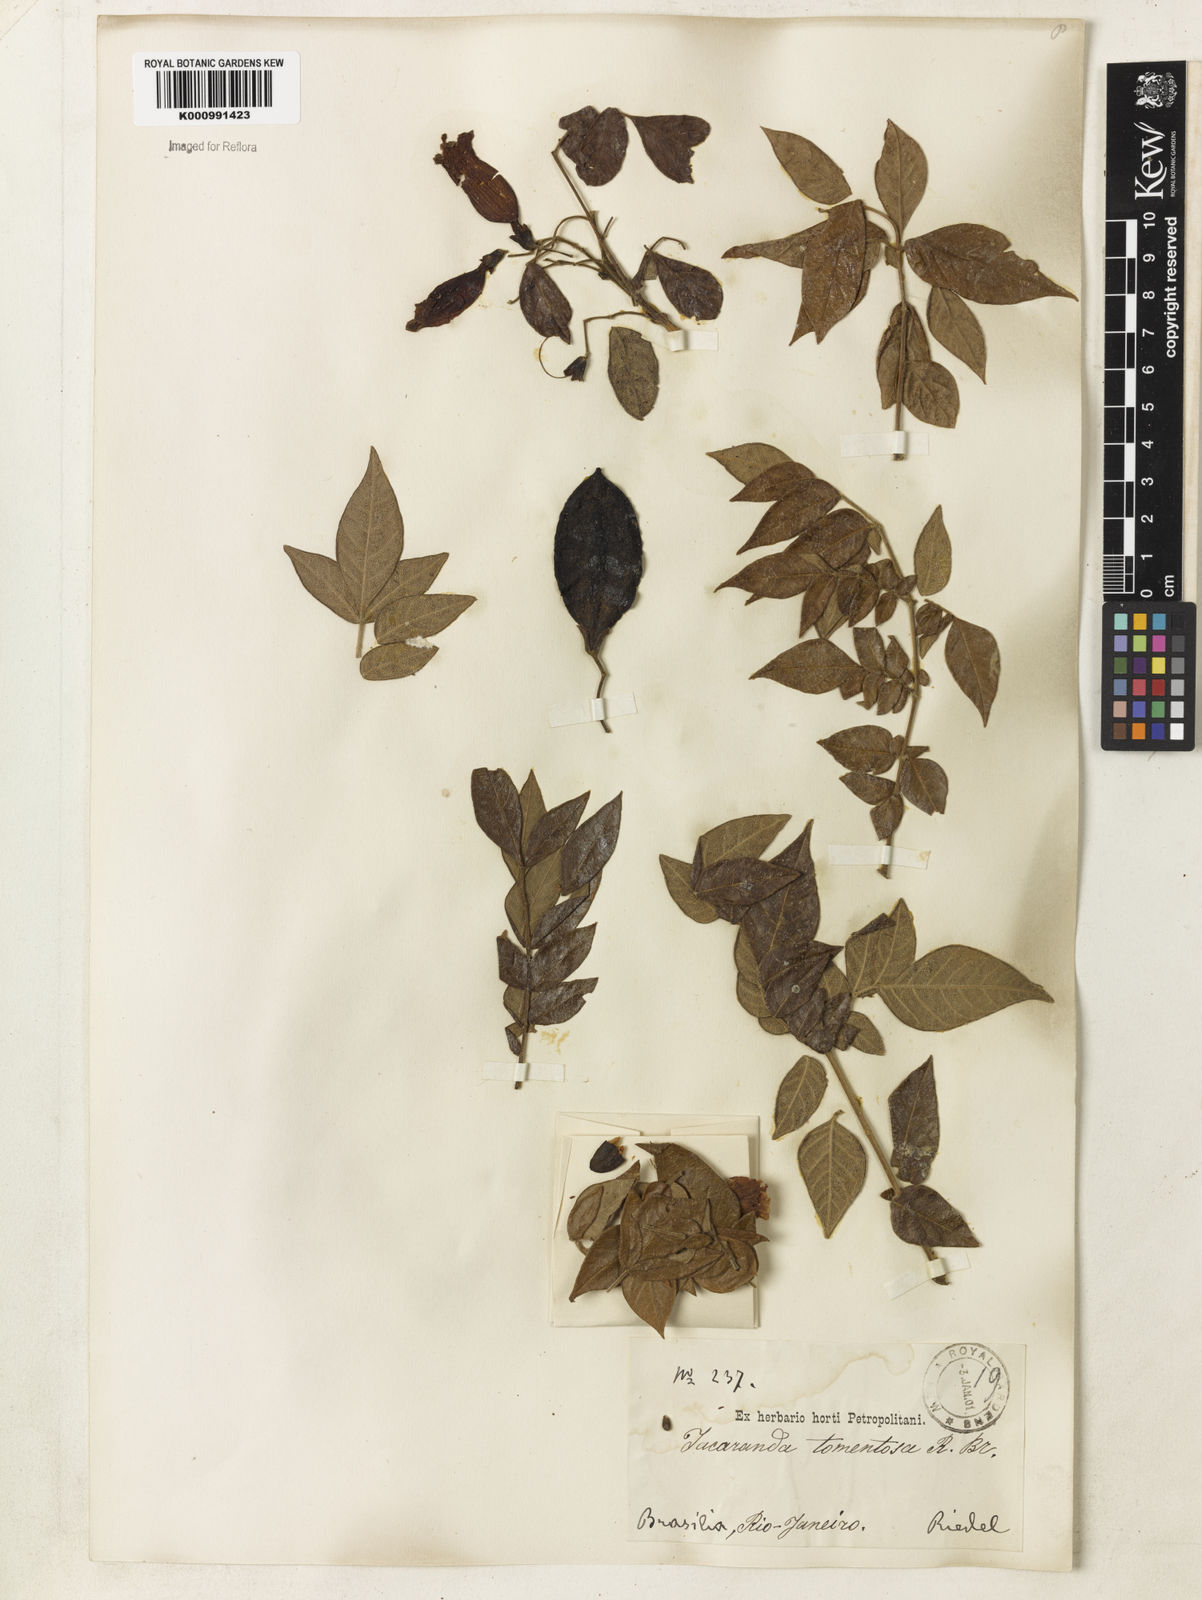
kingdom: Plantae
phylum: Tracheophyta
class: Magnoliopsida
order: Lamiales
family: Bignoniaceae
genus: Jacaranda
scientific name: Jacaranda jasminoides
